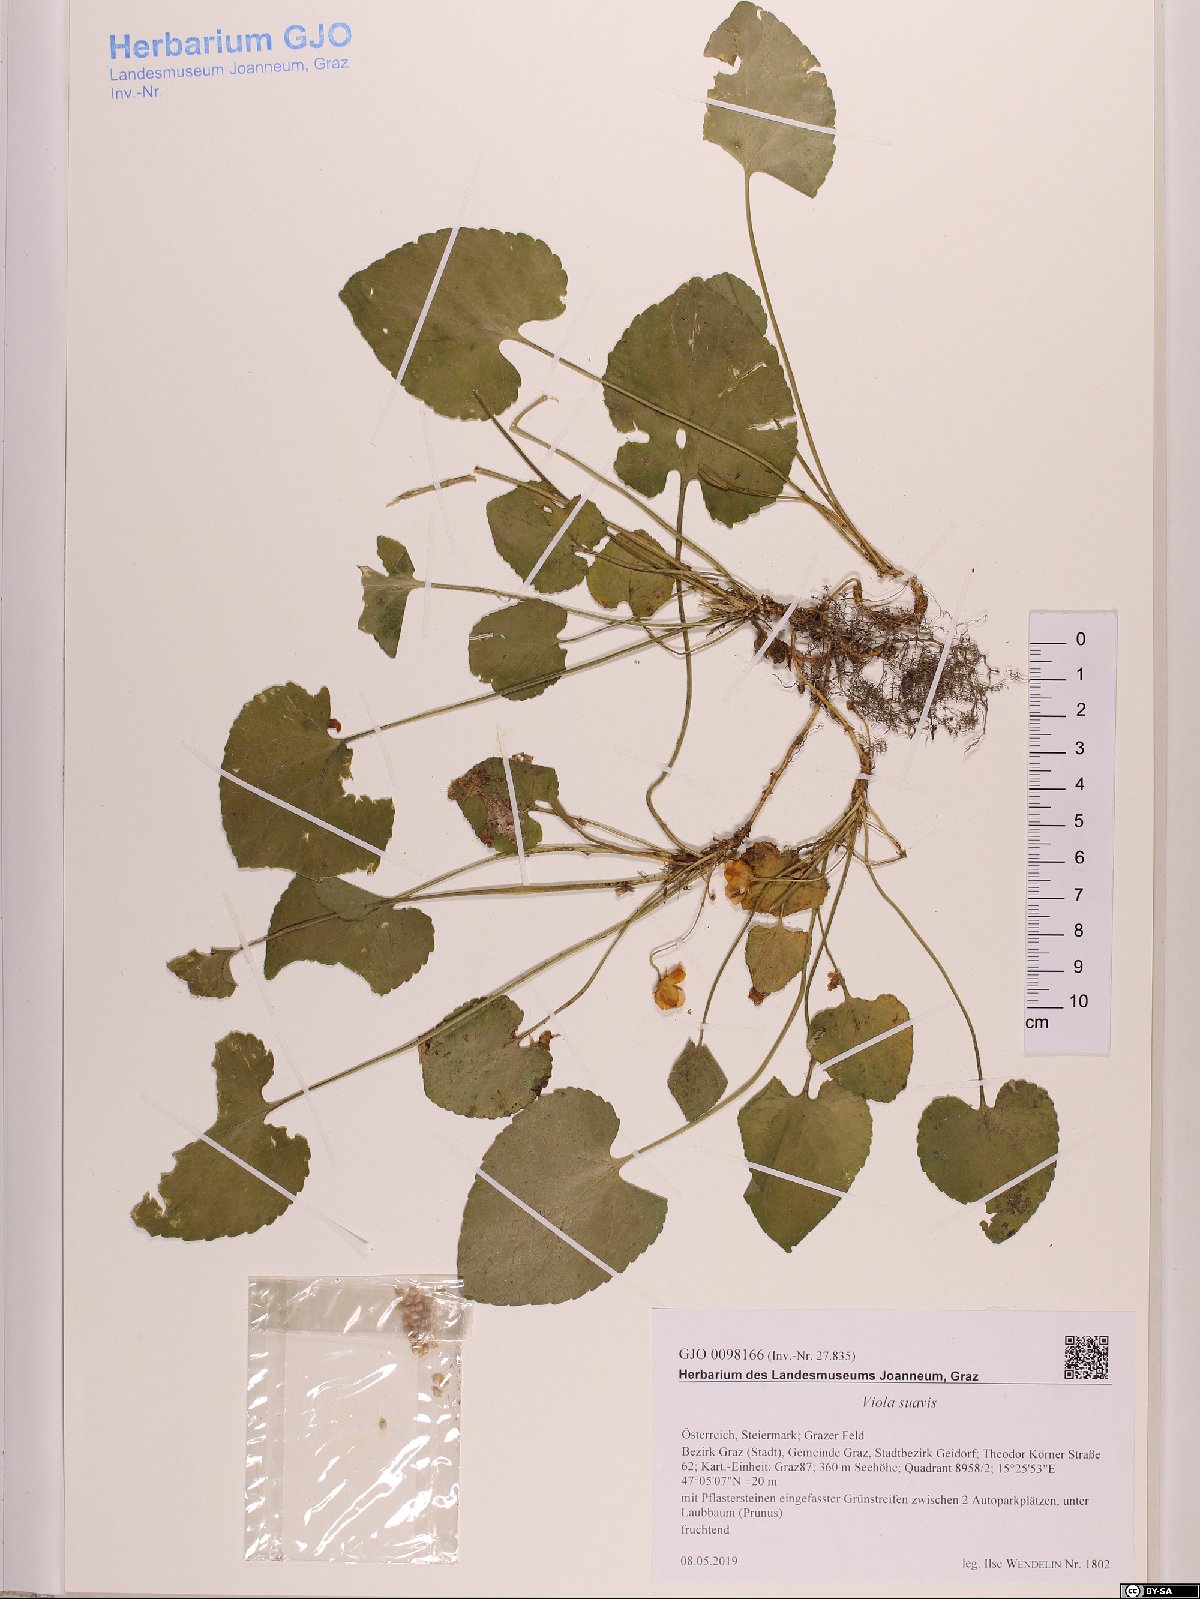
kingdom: Plantae
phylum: Tracheophyta
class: Magnoliopsida
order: Malpighiales
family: Violaceae
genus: Viola
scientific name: Viola suavis
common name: Russian violet
